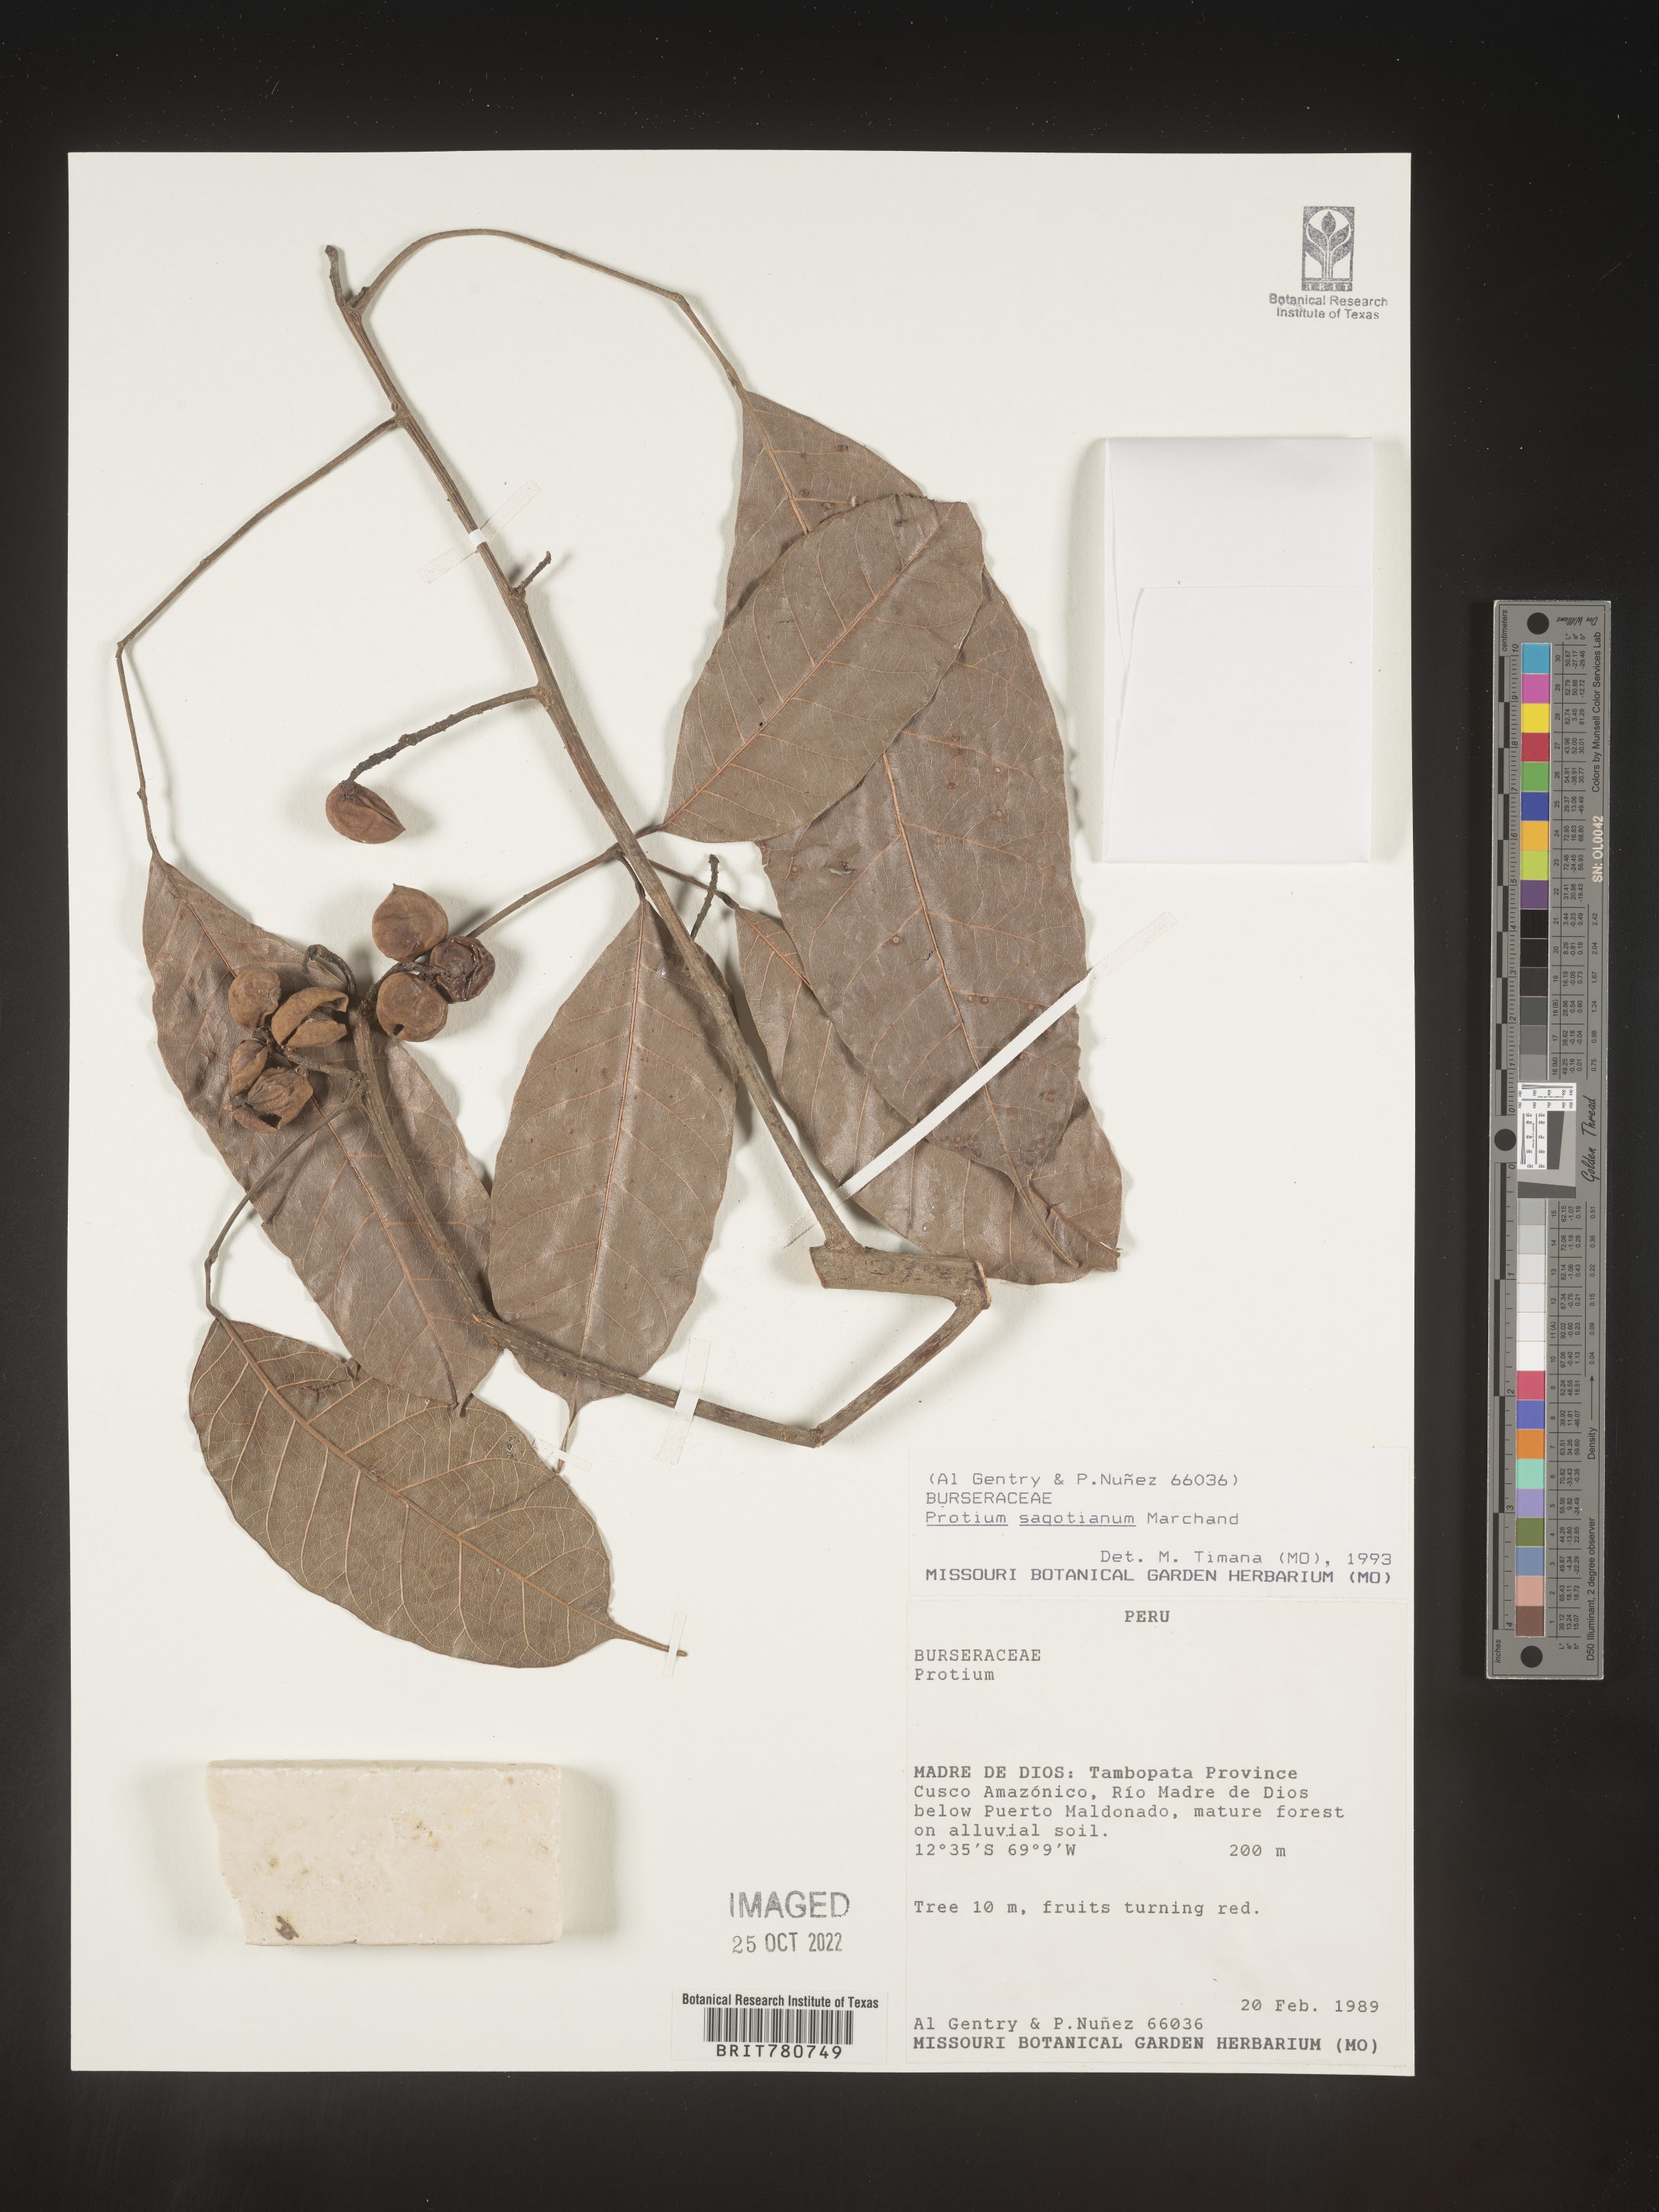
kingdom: Plantae
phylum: Tracheophyta
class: Magnoliopsida
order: Sapindales
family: Burseraceae
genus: Protium
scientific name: Protium
